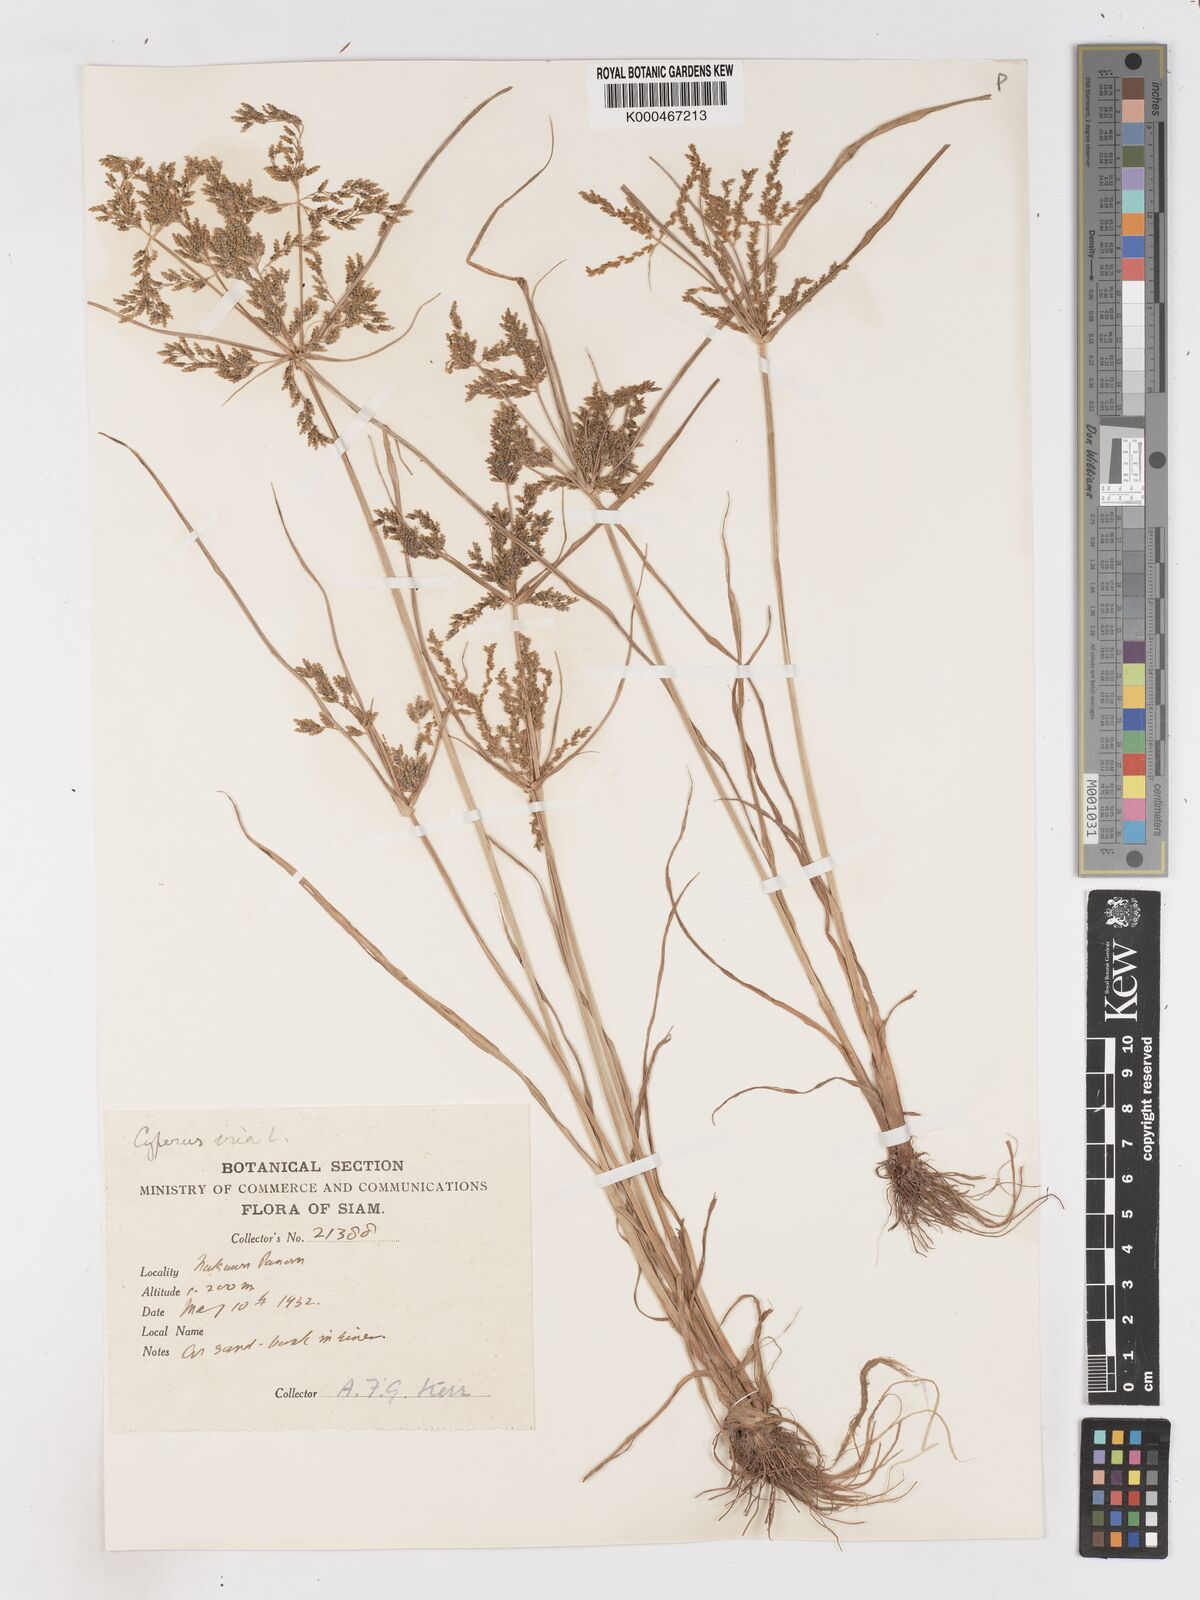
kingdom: Plantae
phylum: Tracheophyta
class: Liliopsida
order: Poales
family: Cyperaceae
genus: Cyperus
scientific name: Cyperus iria
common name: Ricefield flatsedge
